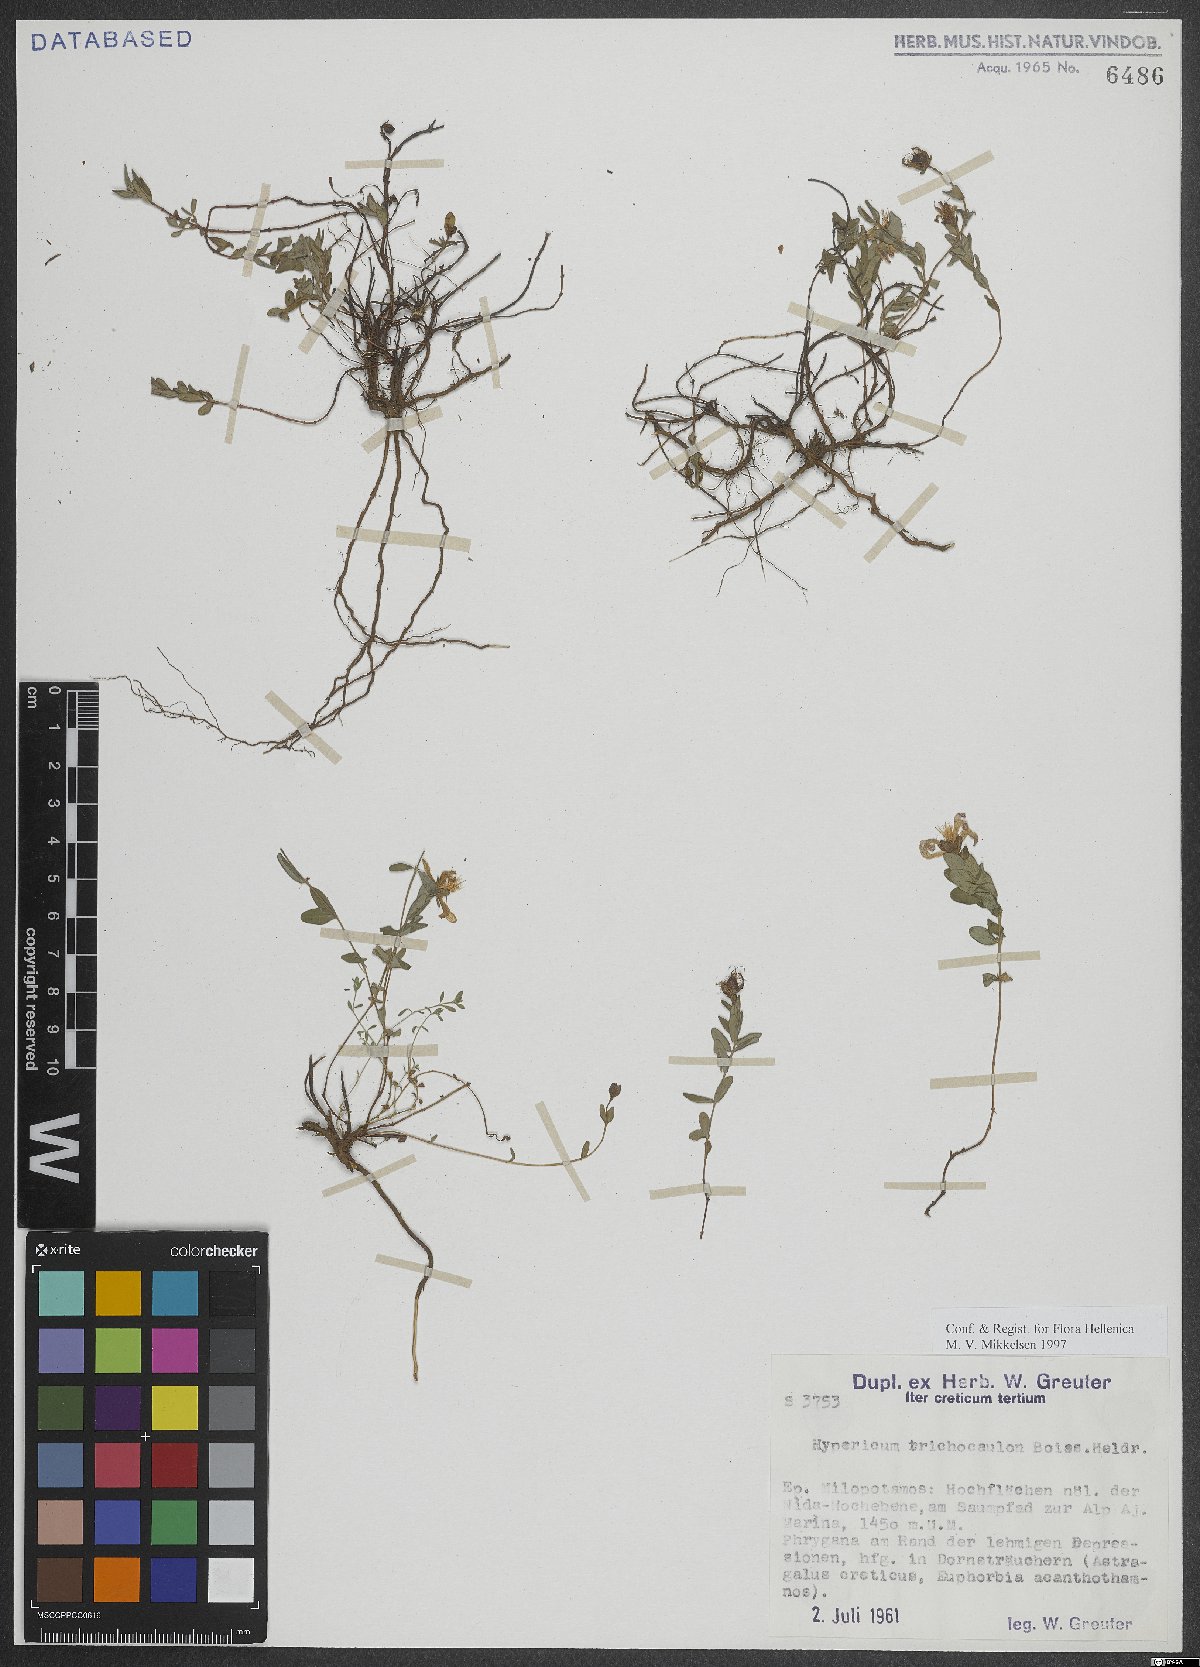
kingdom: Plantae
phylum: Tracheophyta
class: Magnoliopsida
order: Malpighiales
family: Hypericaceae
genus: Hypericum
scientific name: Hypericum trichocaulon
